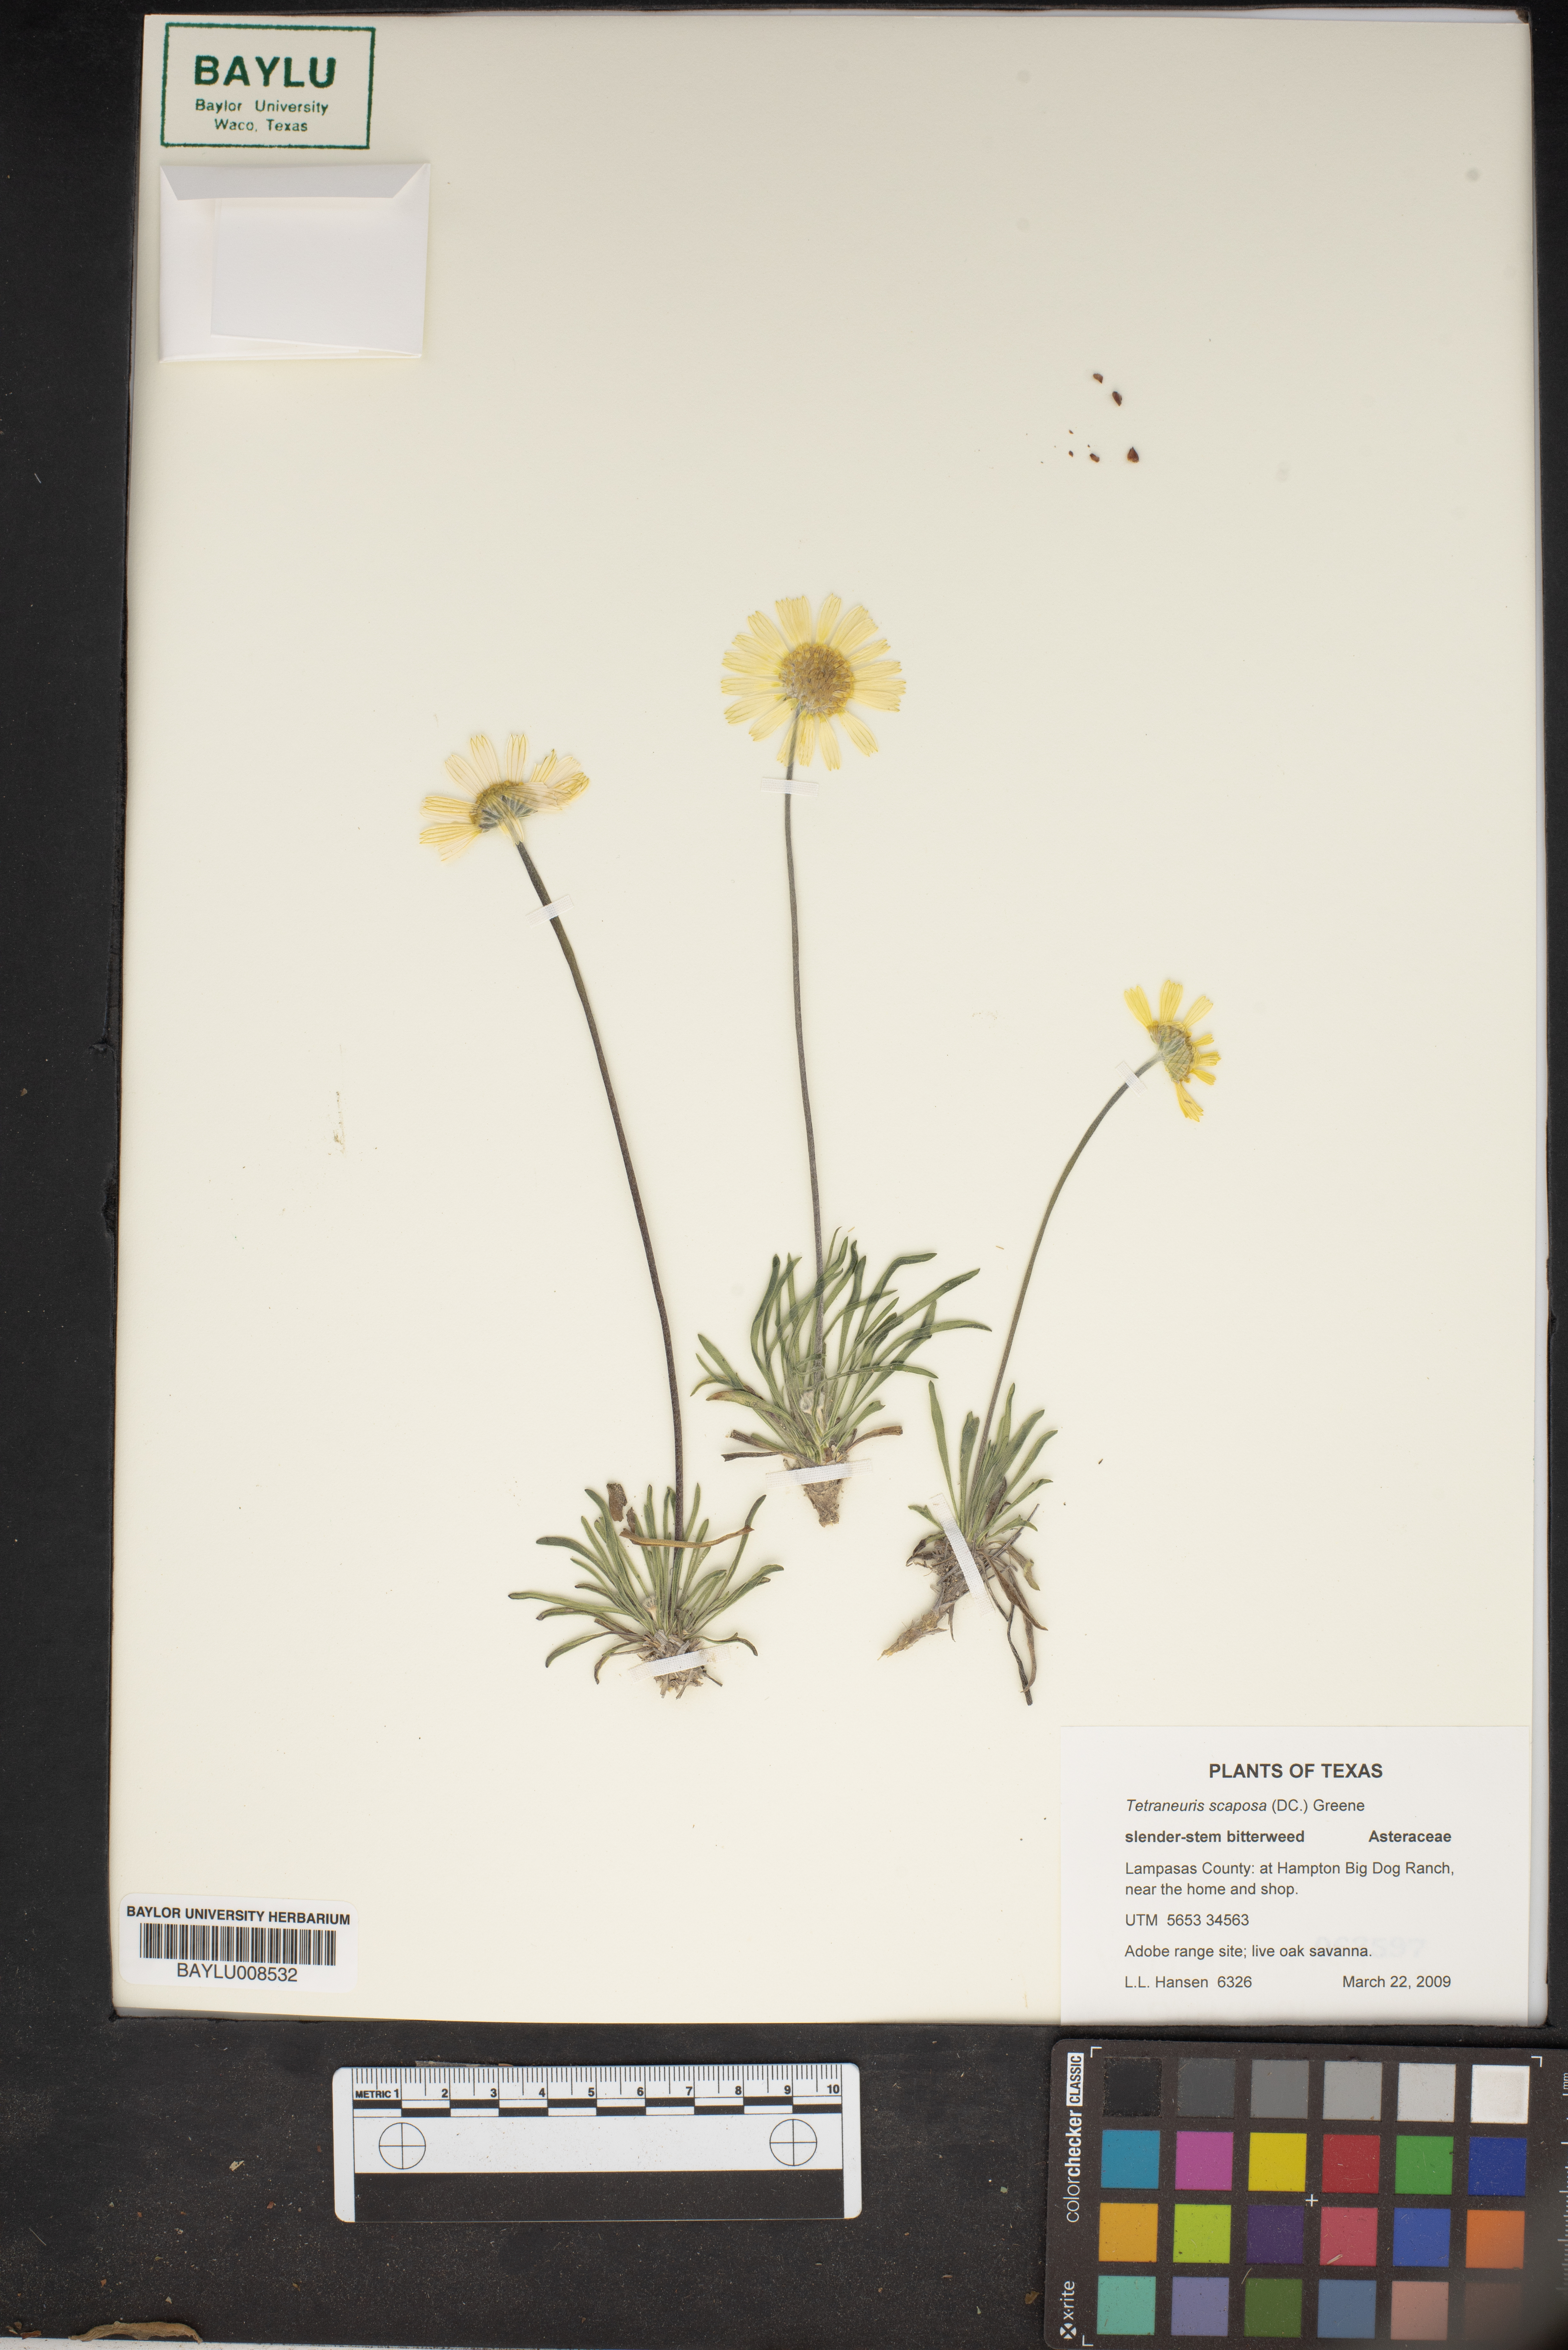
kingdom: Plantae
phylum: Tracheophyta
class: Magnoliopsida
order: Asterales
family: Asteraceae
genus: Tetraneuris
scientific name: Tetraneuris scaposa
